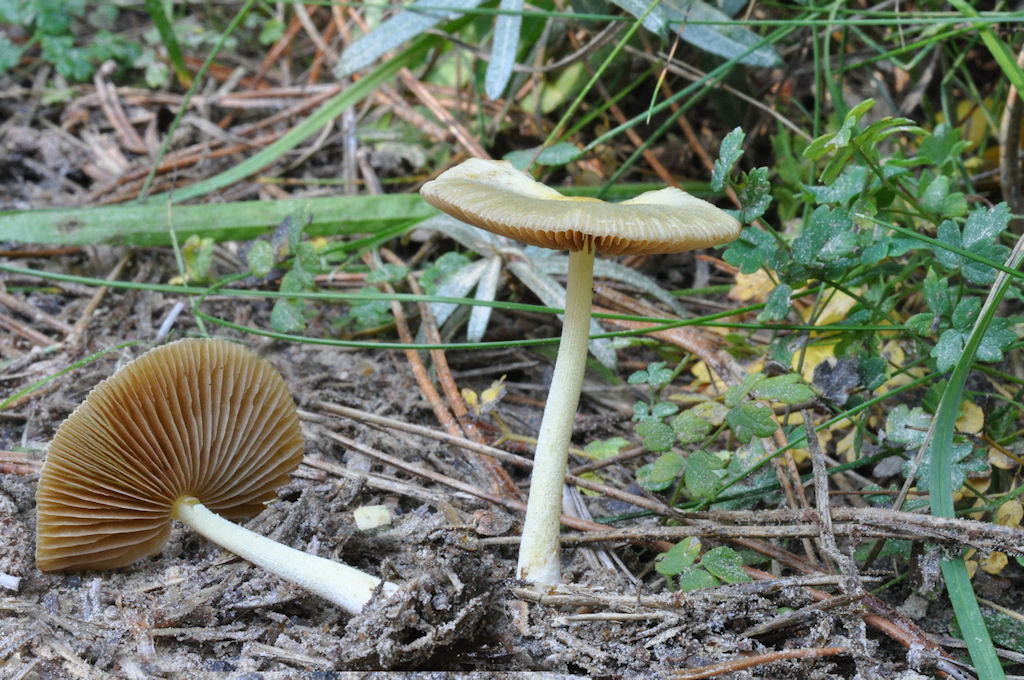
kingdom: Fungi
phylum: Basidiomycota
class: Agaricomycetes
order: Agaricales
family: Bolbitiaceae
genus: Bolbitius
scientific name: Bolbitius titubans
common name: almindelig gulhat
